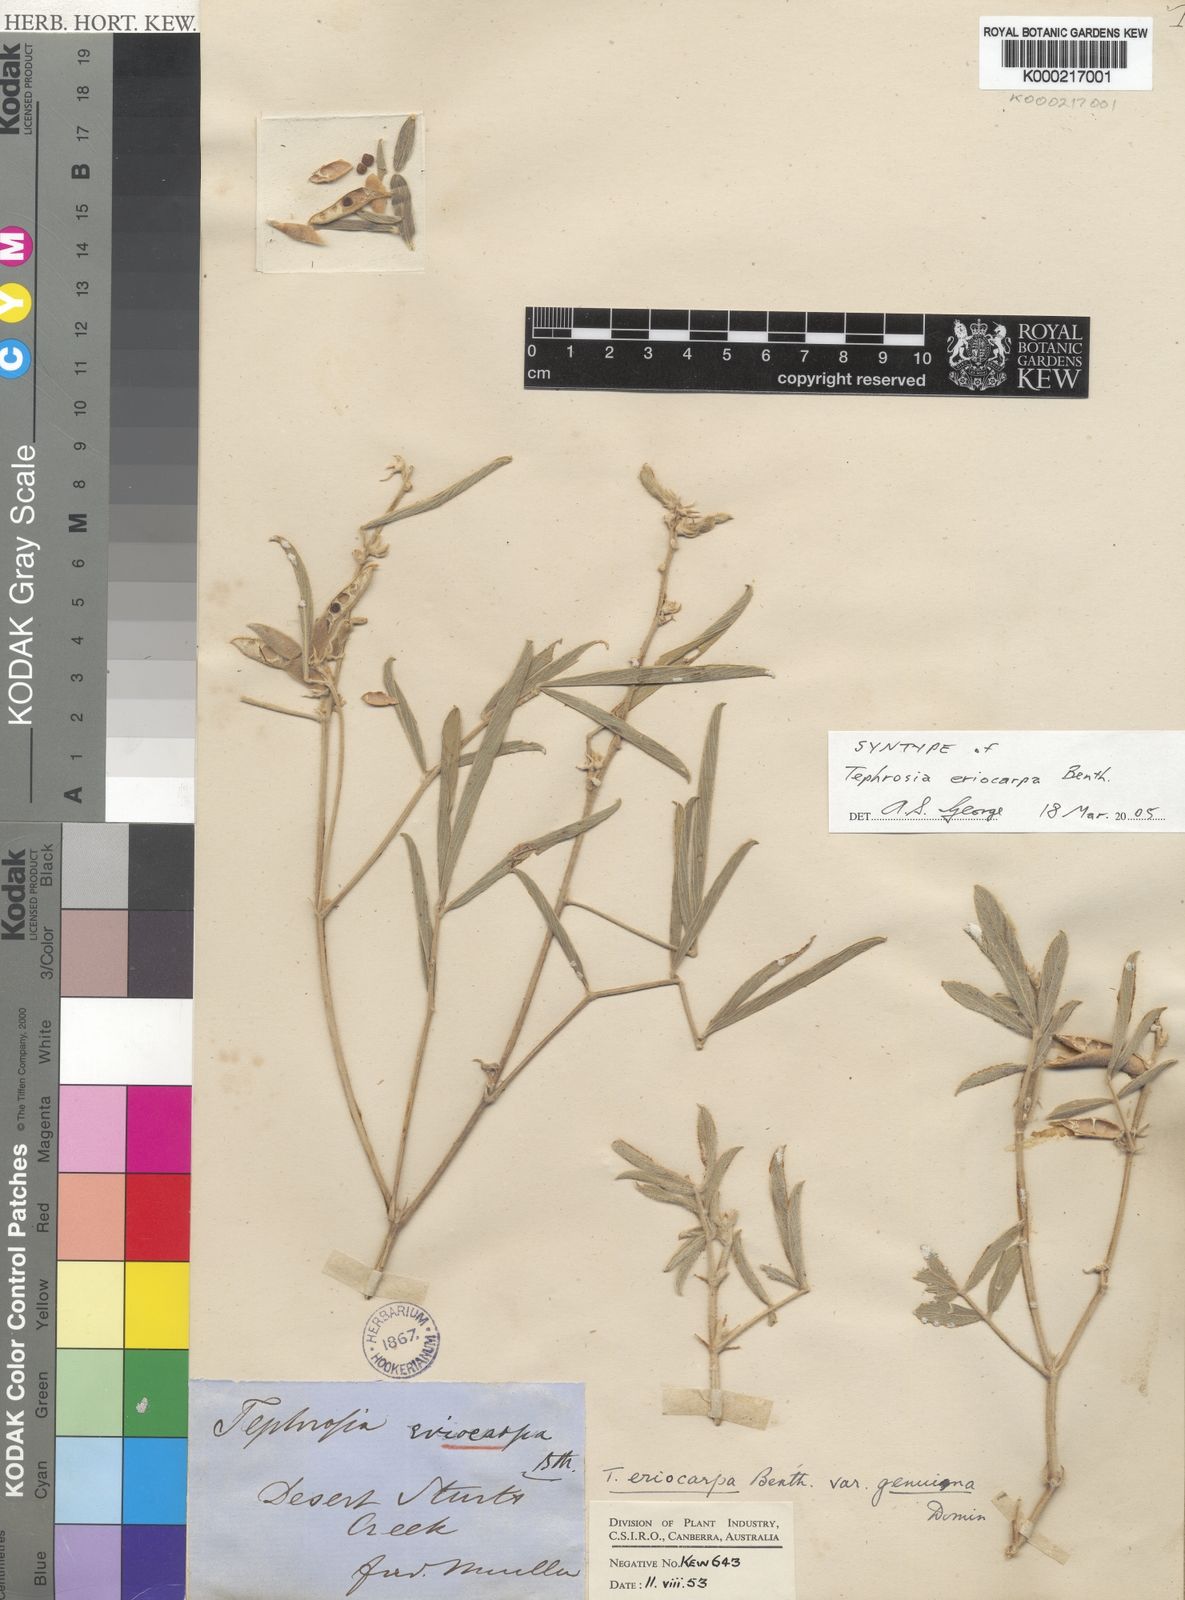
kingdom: Plantae
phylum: Tracheophyta
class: Magnoliopsida
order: Fabales
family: Fabaceae
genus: Tephrosia
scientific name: Tephrosia eriocarpa
